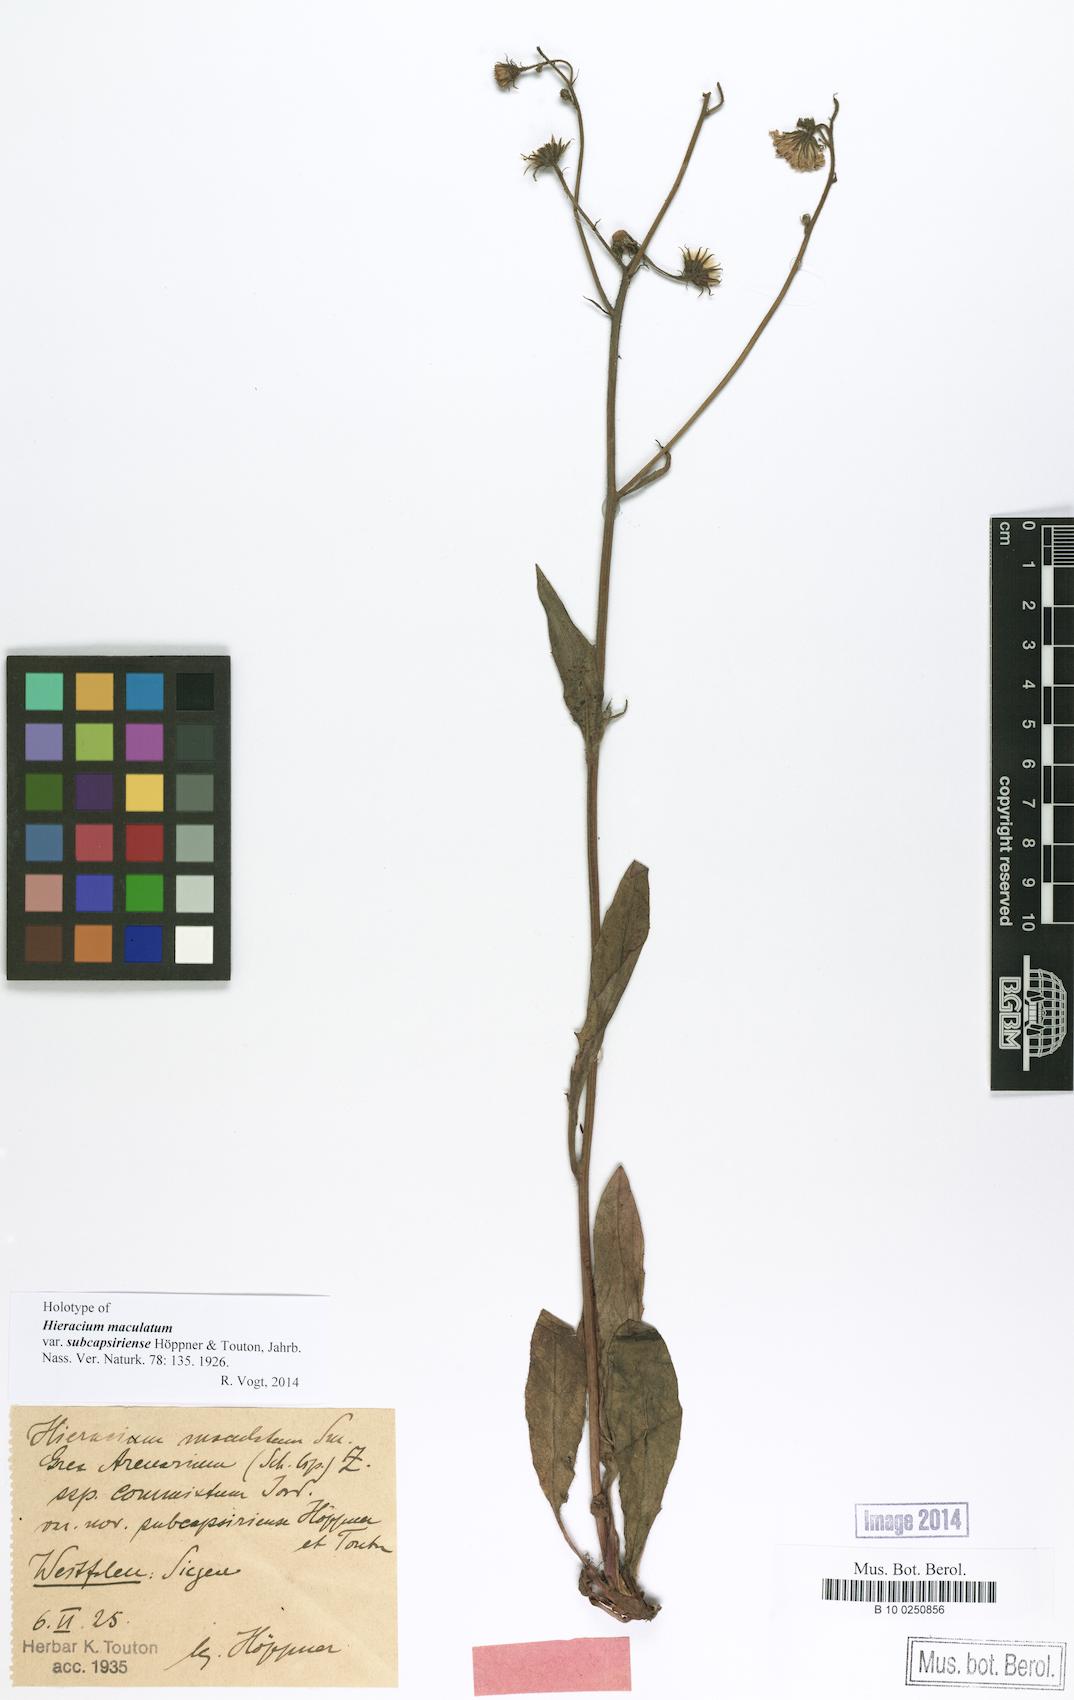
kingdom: Plantae
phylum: Tracheophyta
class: Magnoliopsida
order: Asterales
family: Asteraceae
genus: Hieracium
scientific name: Hieracium maculatum
